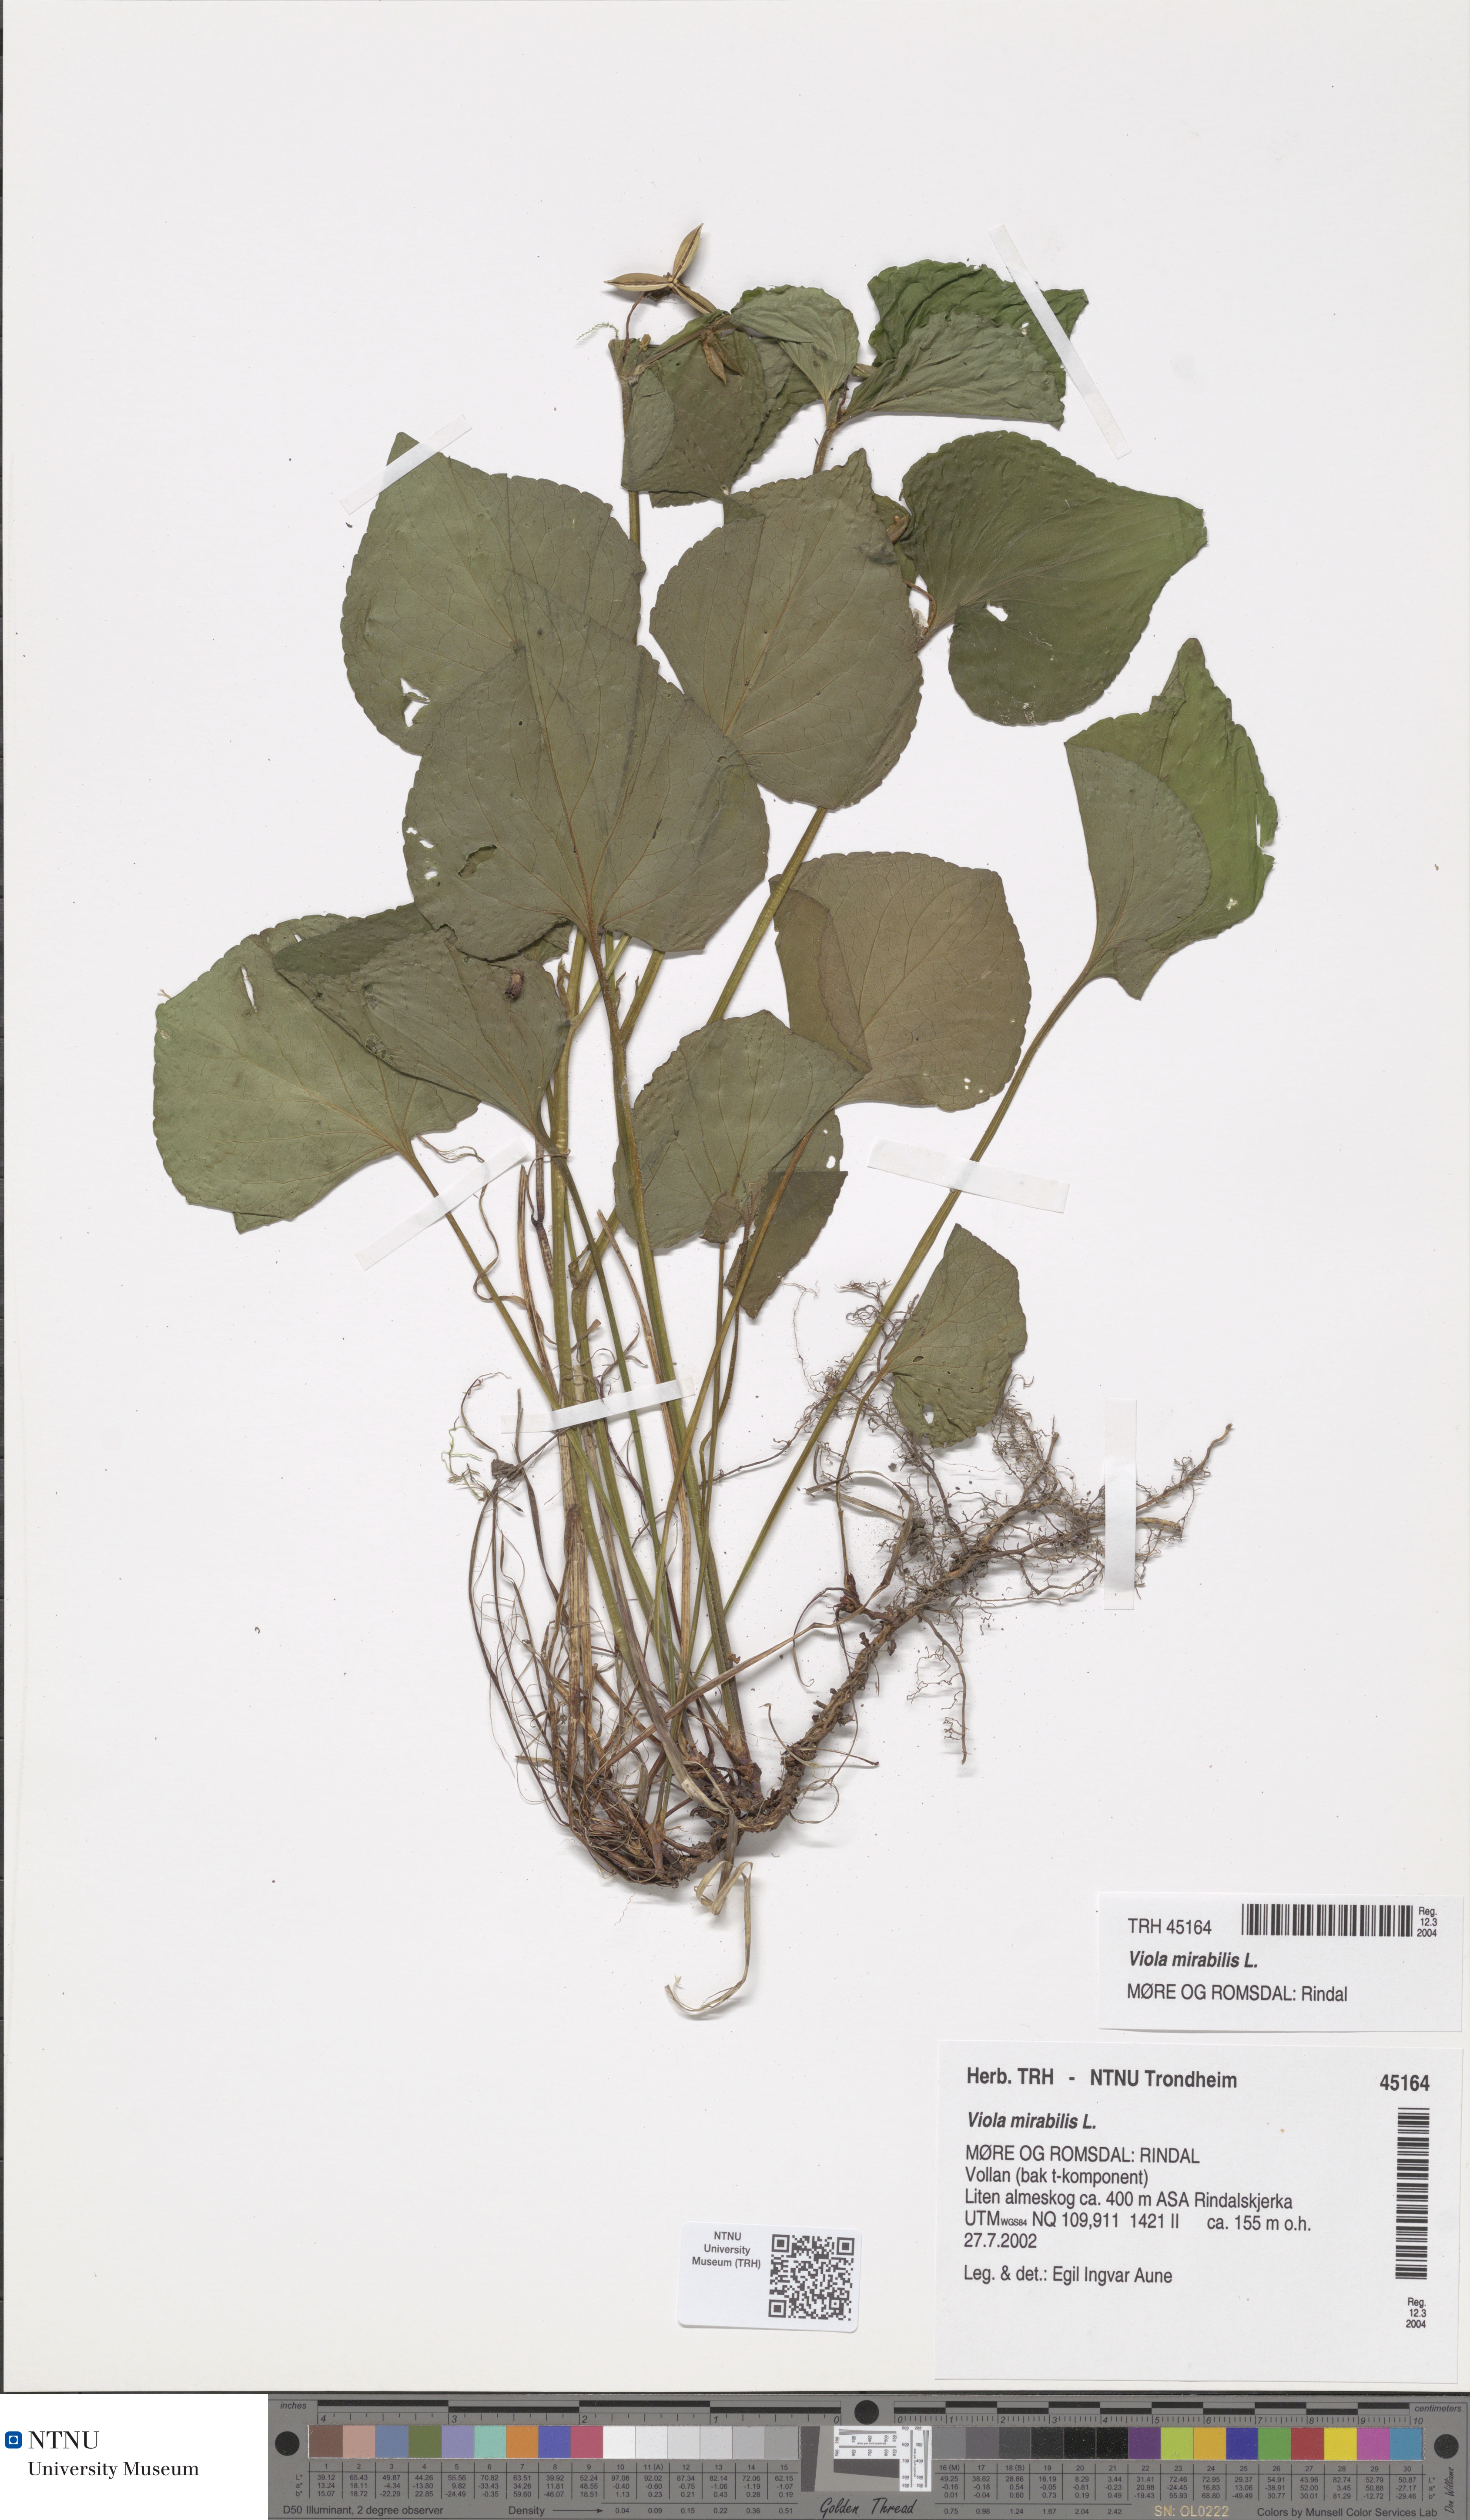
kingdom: Plantae
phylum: Tracheophyta
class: Magnoliopsida
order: Malpighiales
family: Violaceae
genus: Viola
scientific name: Viola mirabilis
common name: Wonder violet
